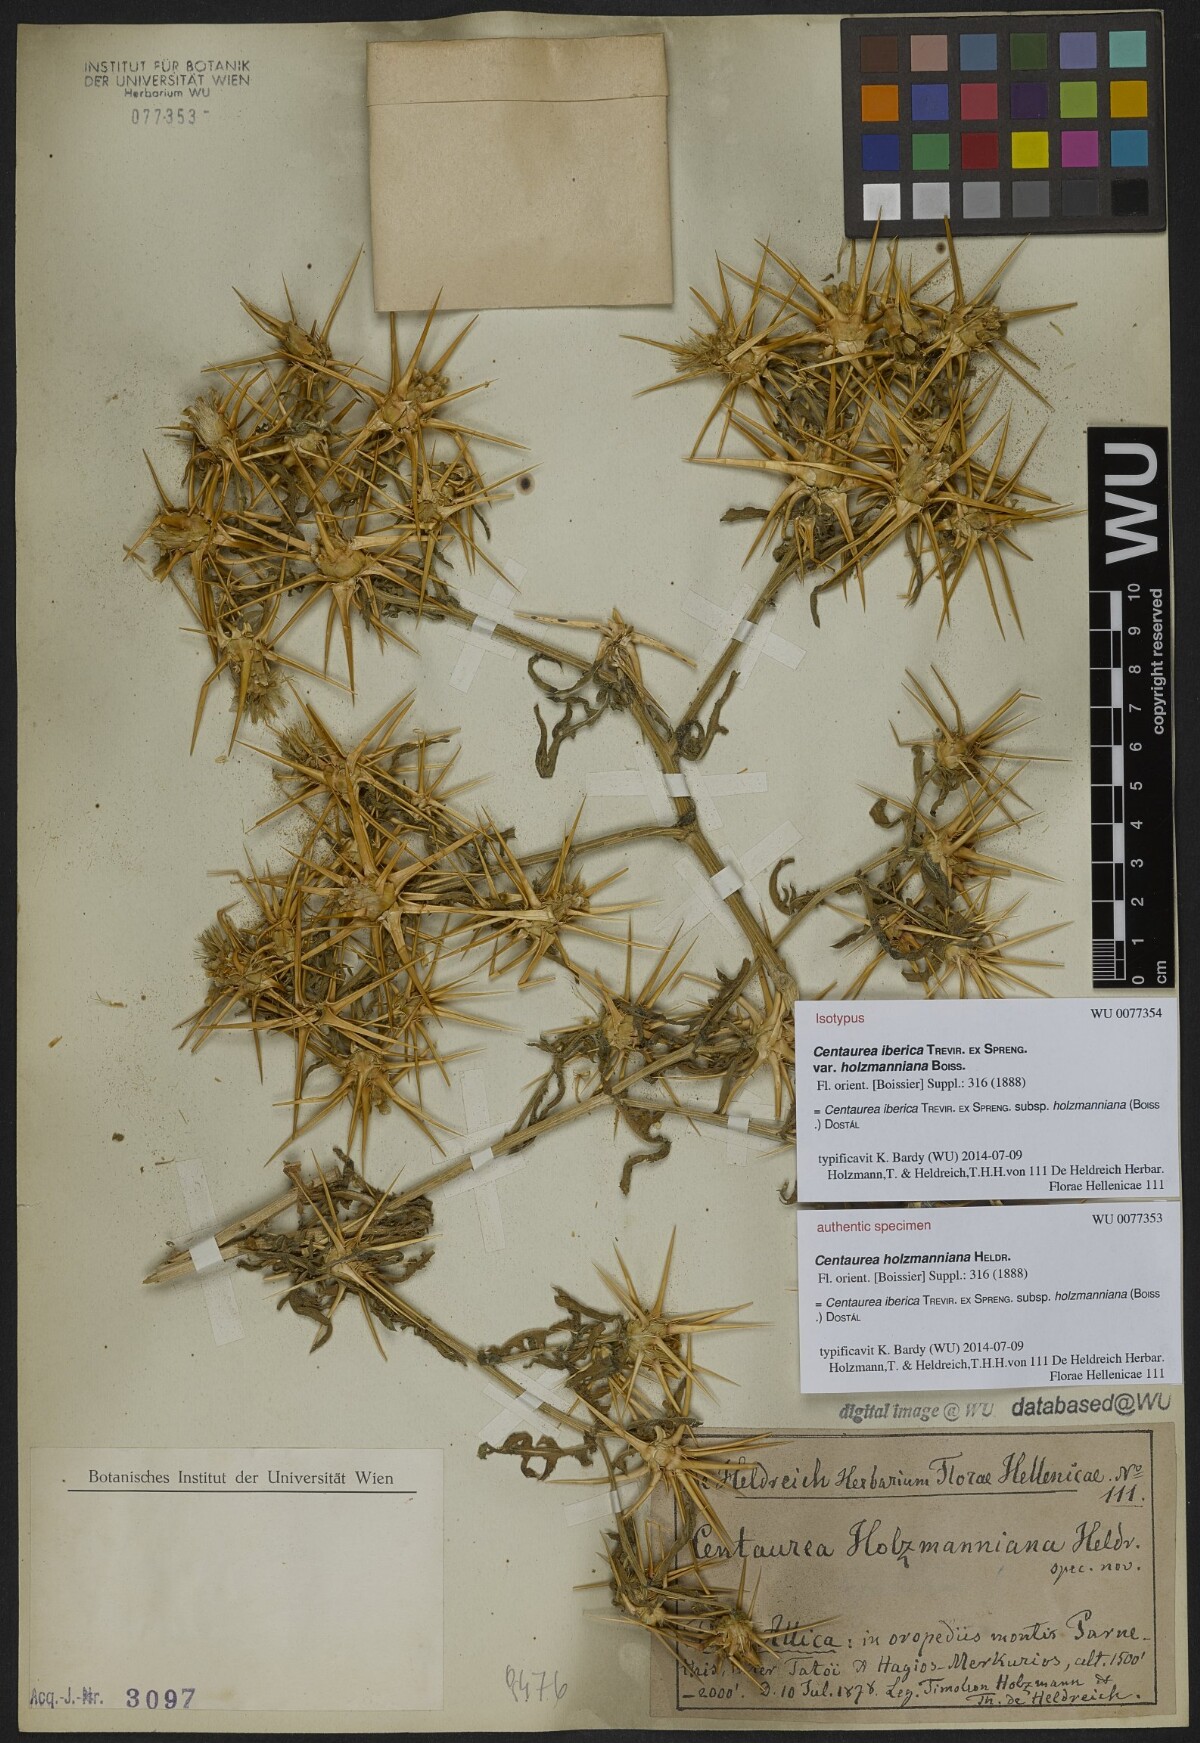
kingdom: Plantae
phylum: Tracheophyta
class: Magnoliopsida
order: Asterales
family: Asteraceae
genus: Centaurea
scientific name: Centaurea iberica
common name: Iberian knapweed
